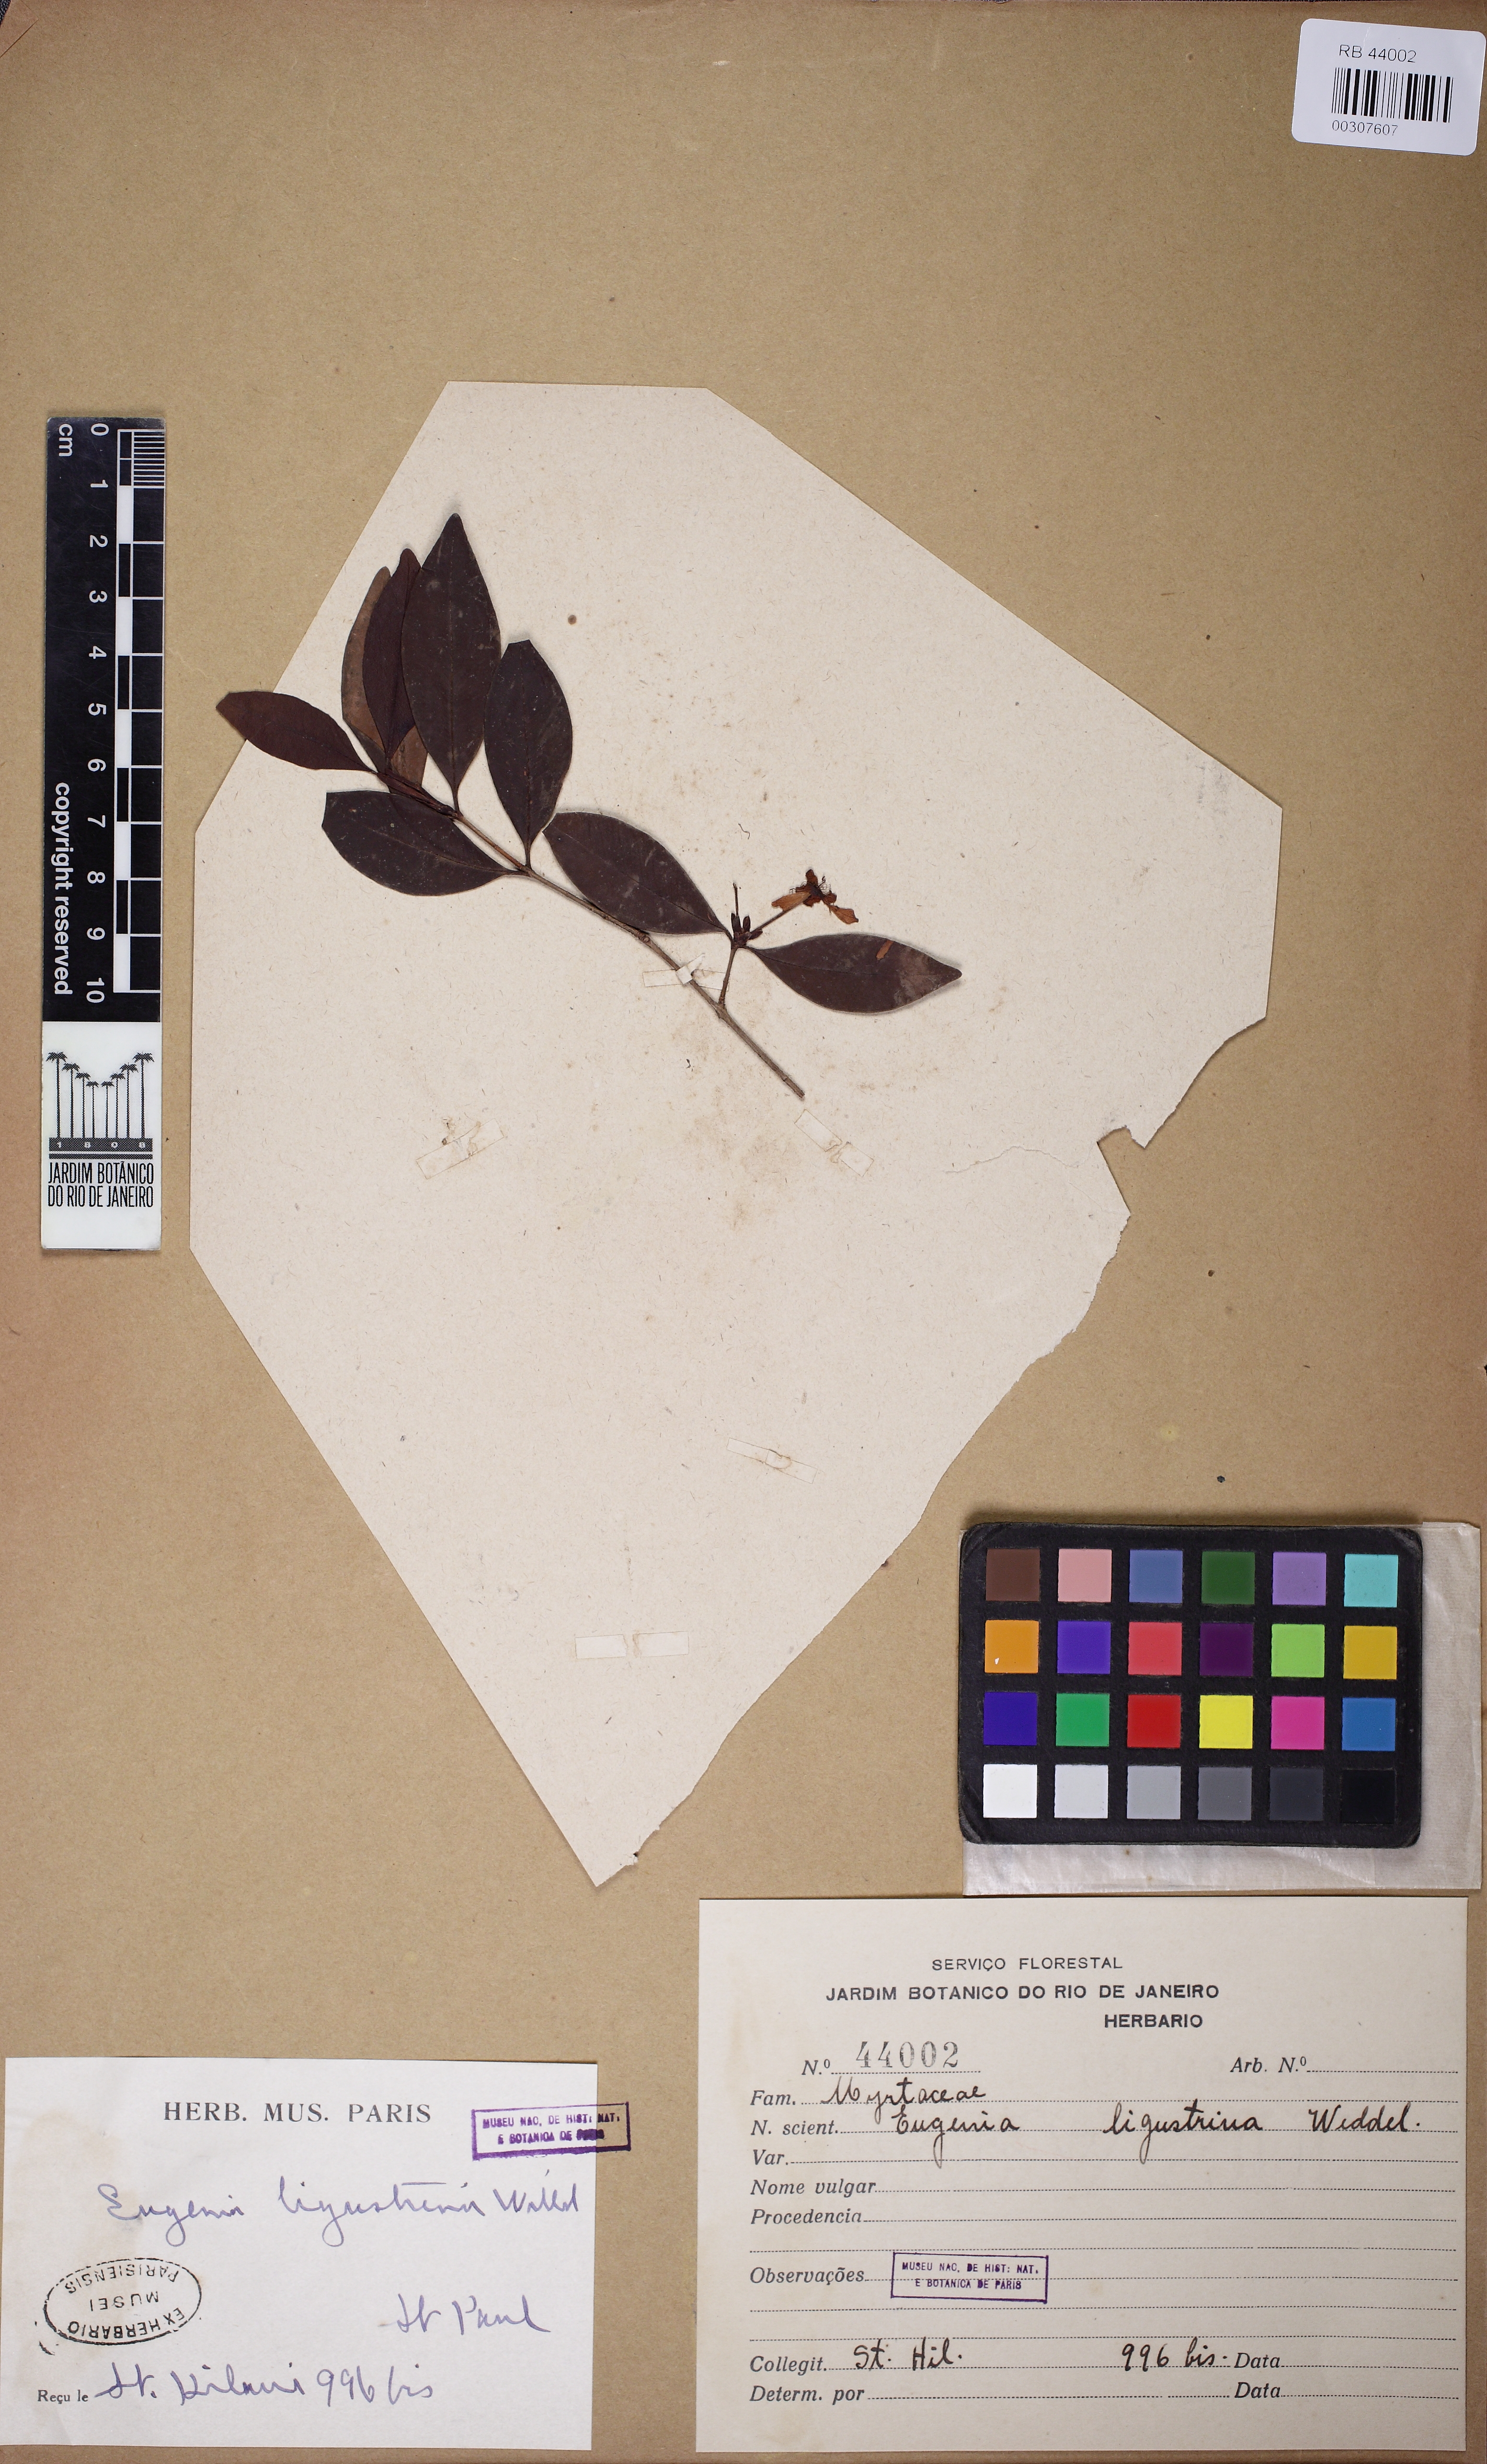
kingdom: Plantae
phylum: Tracheophyta
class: Magnoliopsida
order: Myrtales
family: Myrtaceae
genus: Eugenia
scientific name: Eugenia ligustrina
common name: Privet stopper
